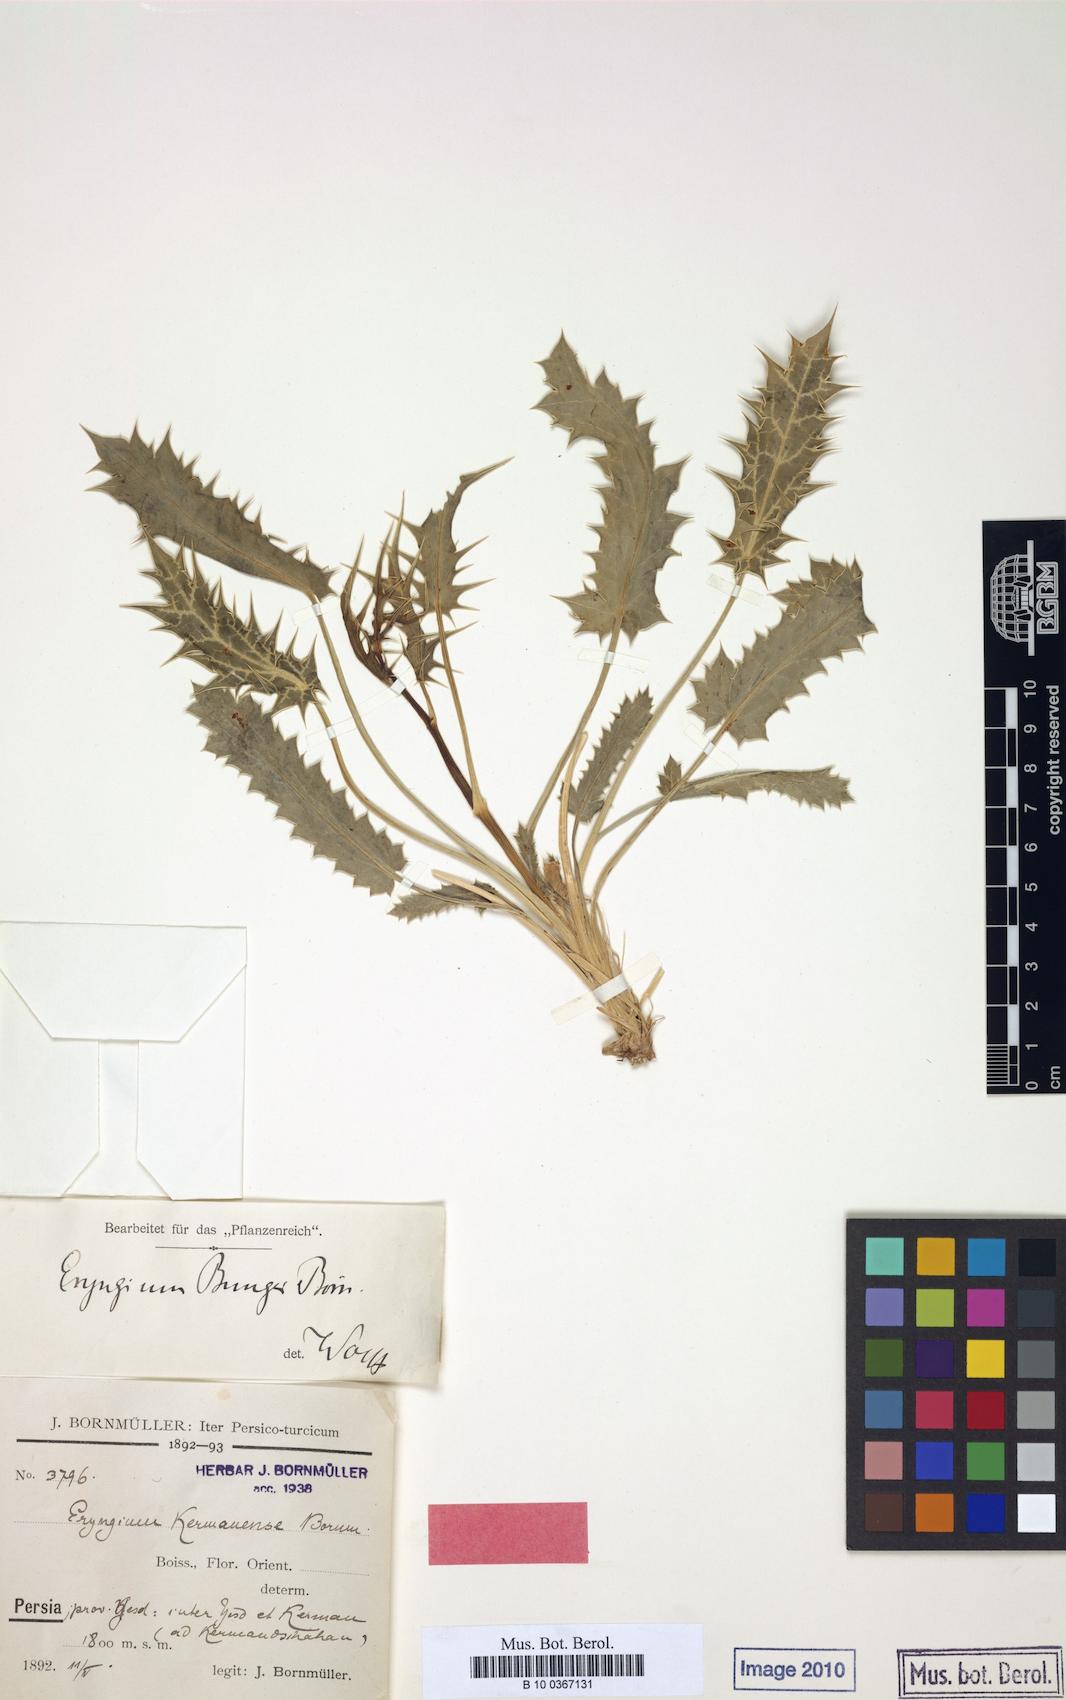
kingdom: Plantae
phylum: Tracheophyta
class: Magnoliopsida
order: Apiales
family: Apiaceae
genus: Eryngium
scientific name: Eryngium bungei
